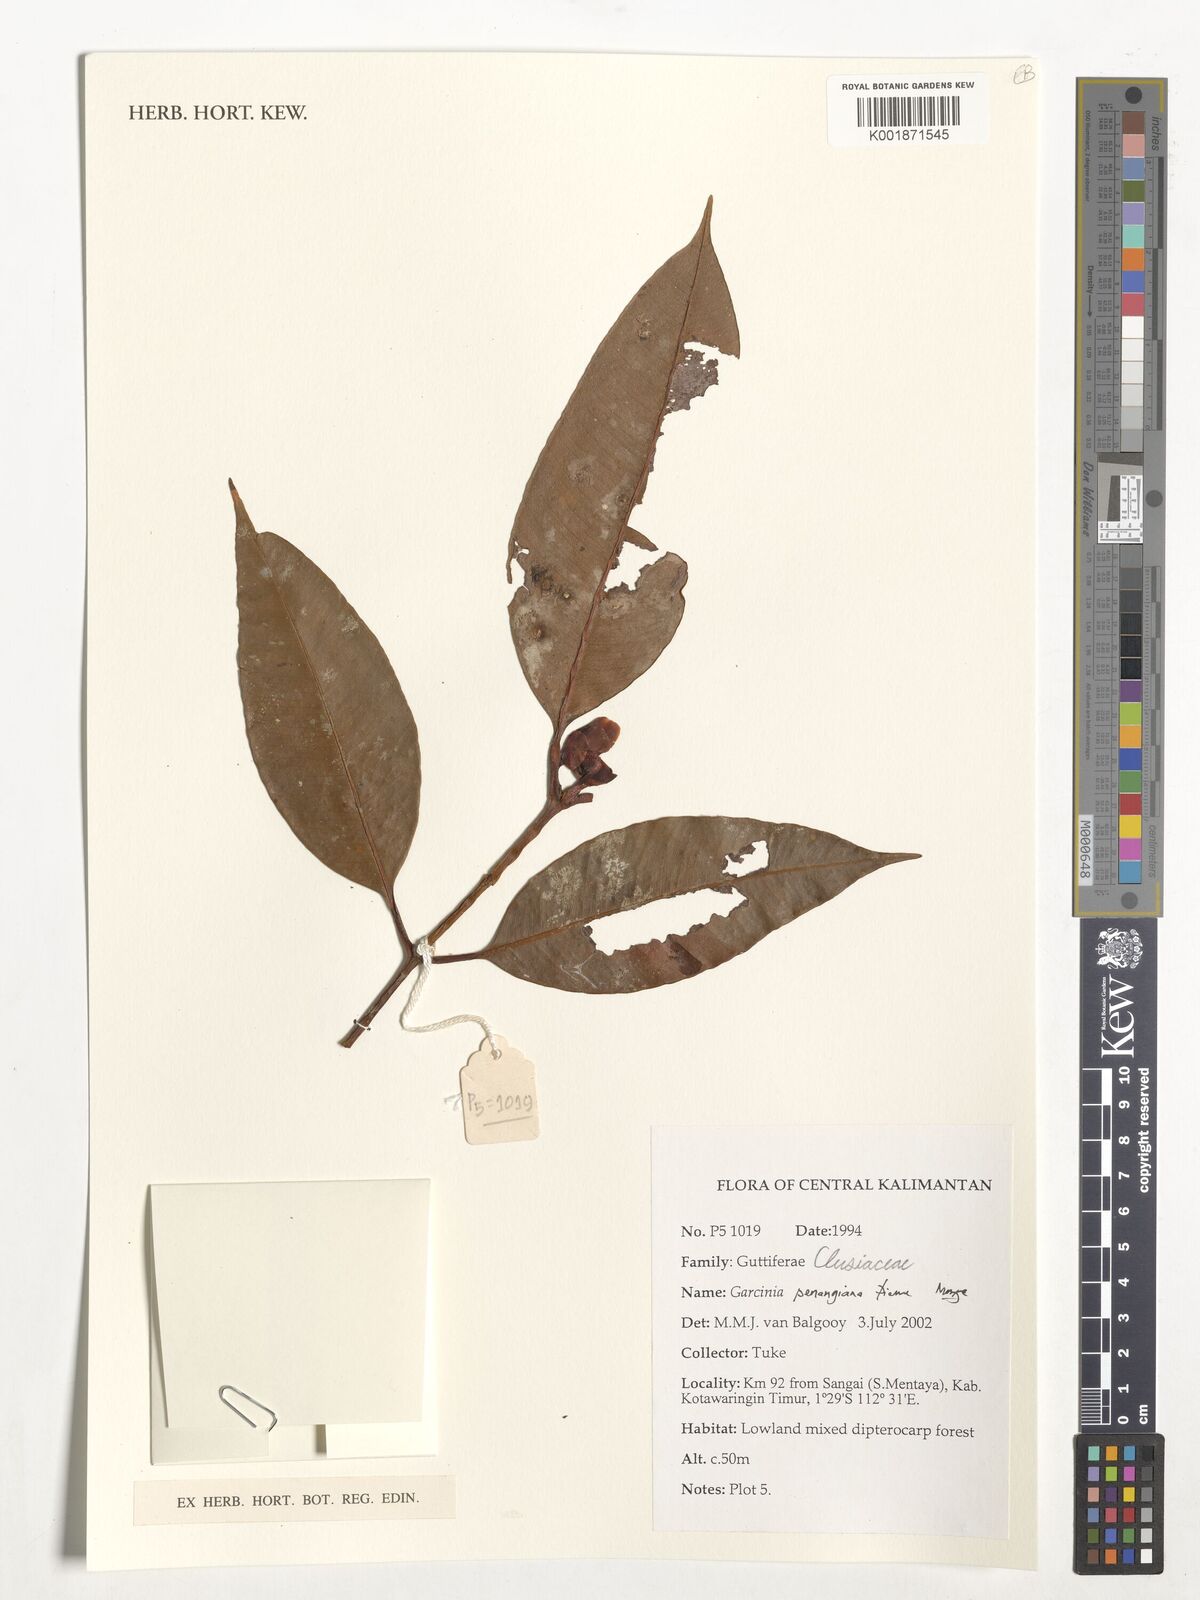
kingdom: Plantae
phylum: Tracheophyta
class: Magnoliopsida
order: Malpighiales
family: Clusiaceae
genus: Garcinia
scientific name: Garcinia penangiana
